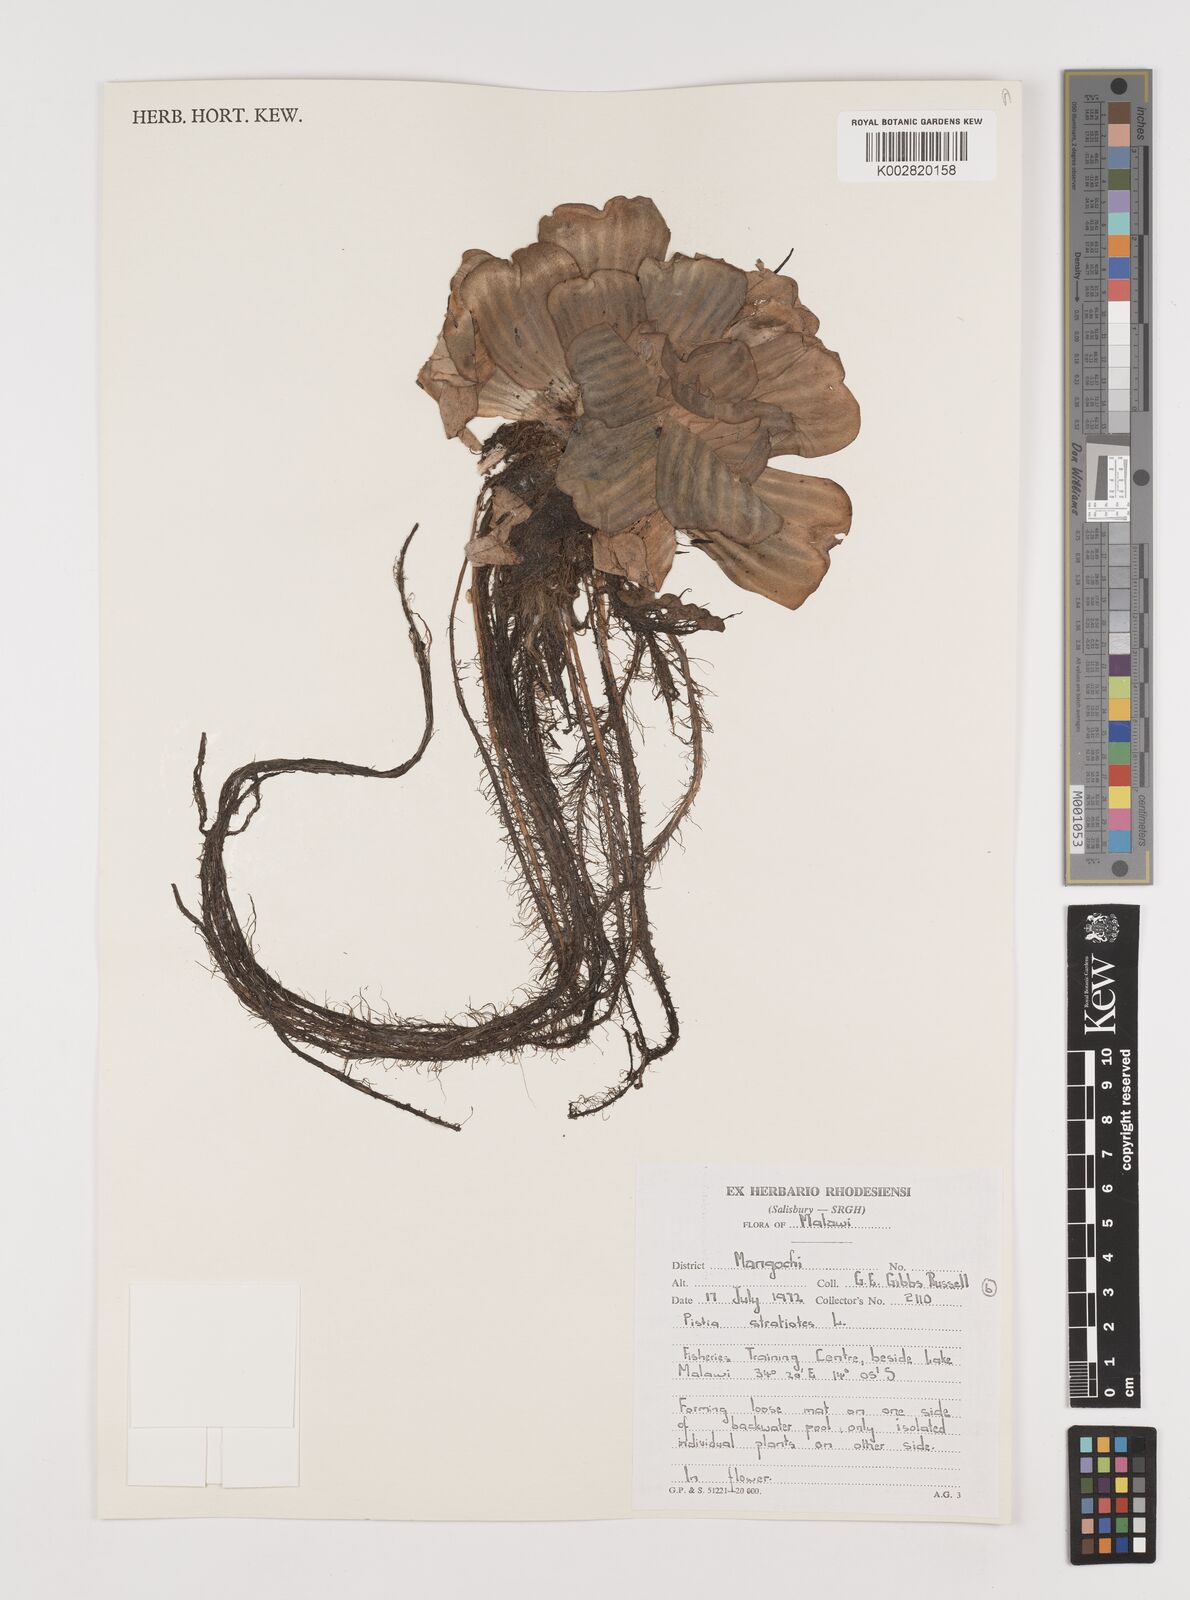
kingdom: Plantae
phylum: Tracheophyta
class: Liliopsida
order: Alismatales
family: Araceae
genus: Pistia
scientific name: Pistia stratiotes
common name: Water lettuce
